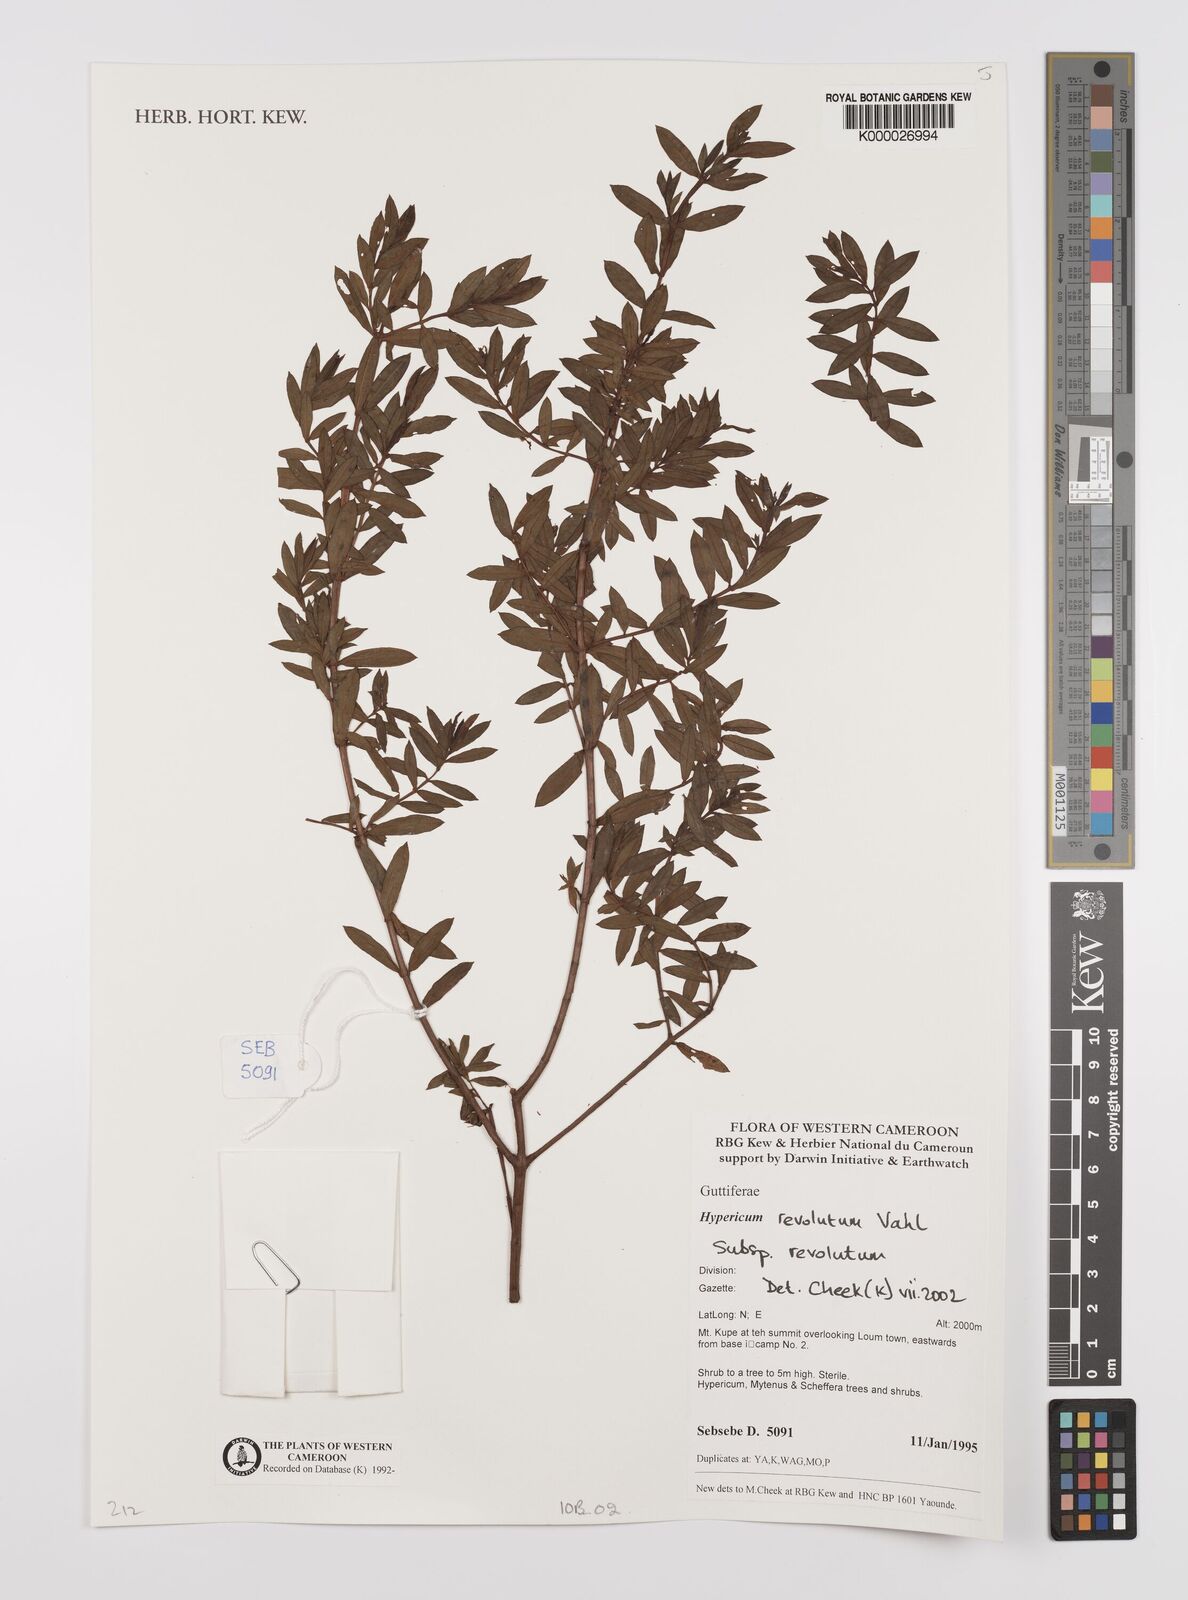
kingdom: Plantae
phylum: Tracheophyta
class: Magnoliopsida
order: Malpighiales
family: Hypericaceae
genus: Hypericum
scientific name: Hypericum revolutum
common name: Curry bush
